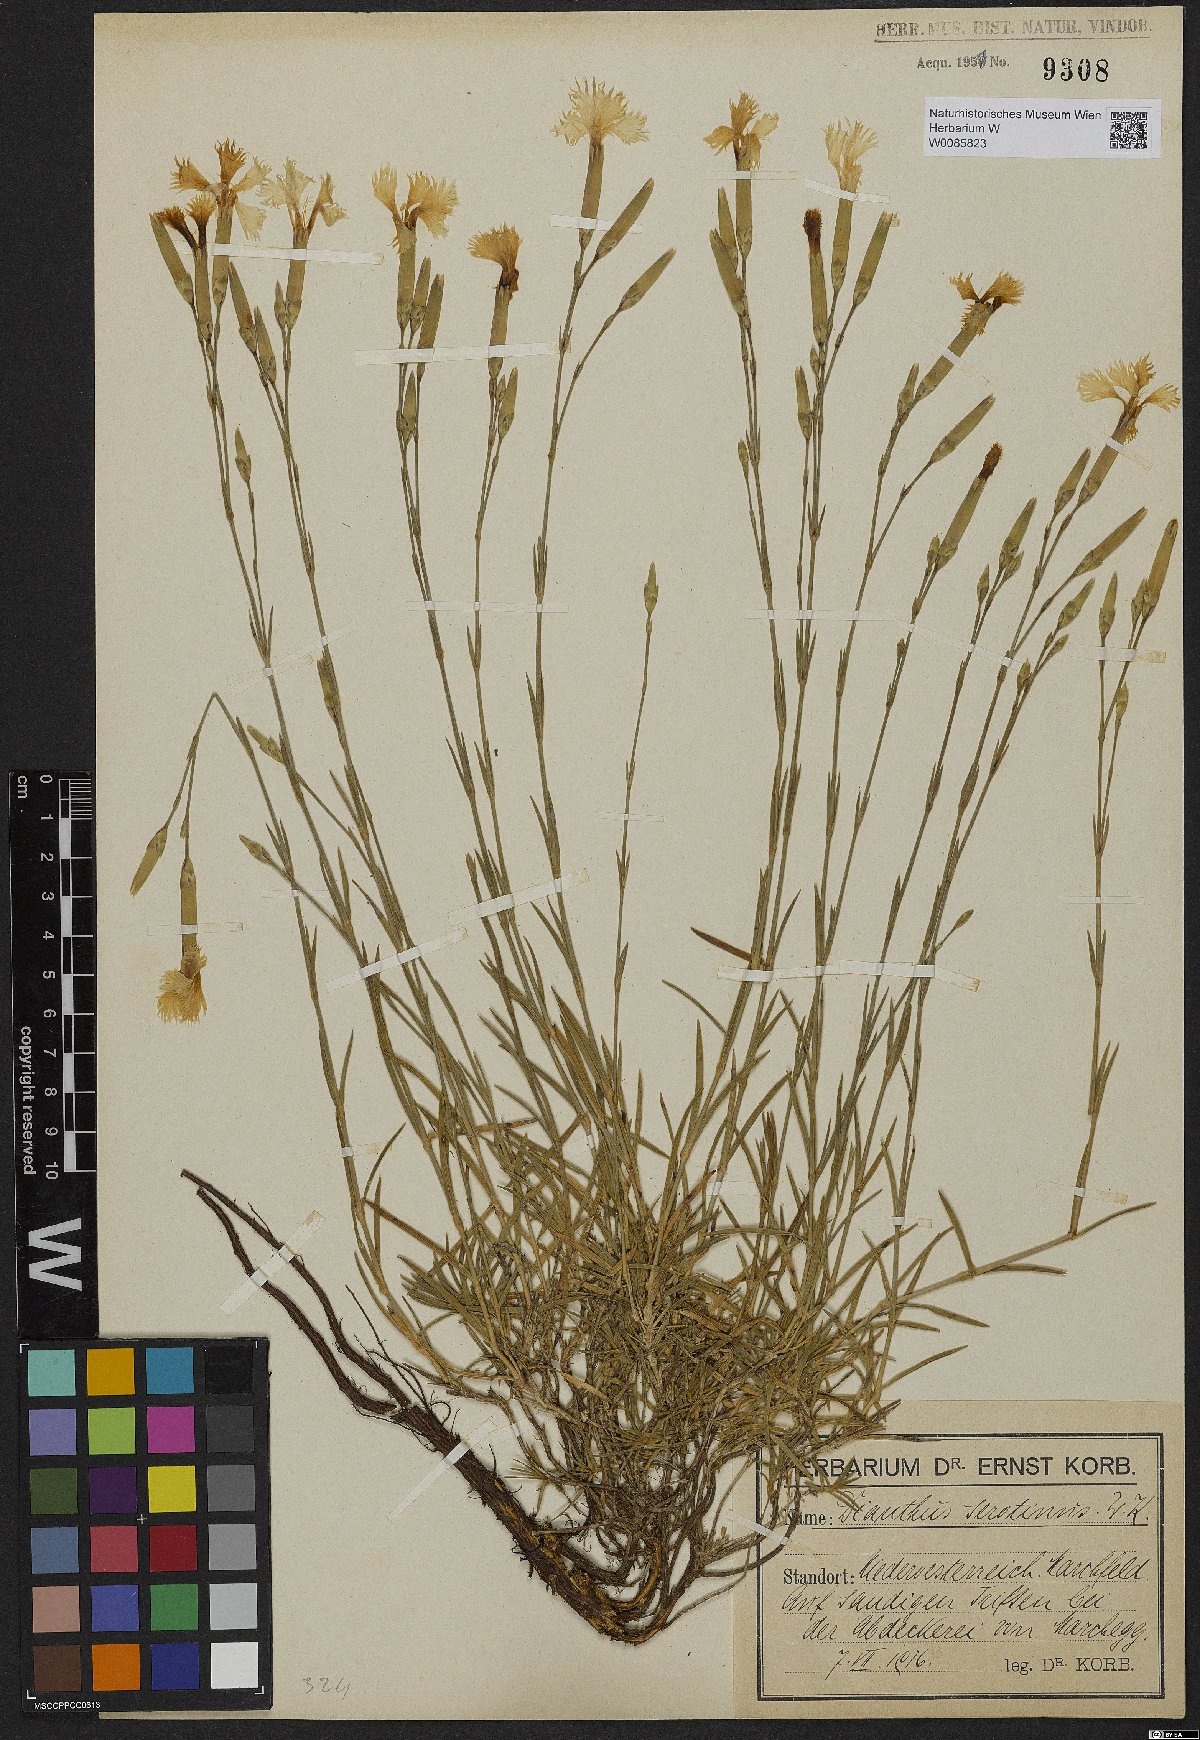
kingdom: Plantae
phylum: Tracheophyta
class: Magnoliopsida
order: Caryophyllales
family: Caryophyllaceae
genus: Dianthus
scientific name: Dianthus serotinus
